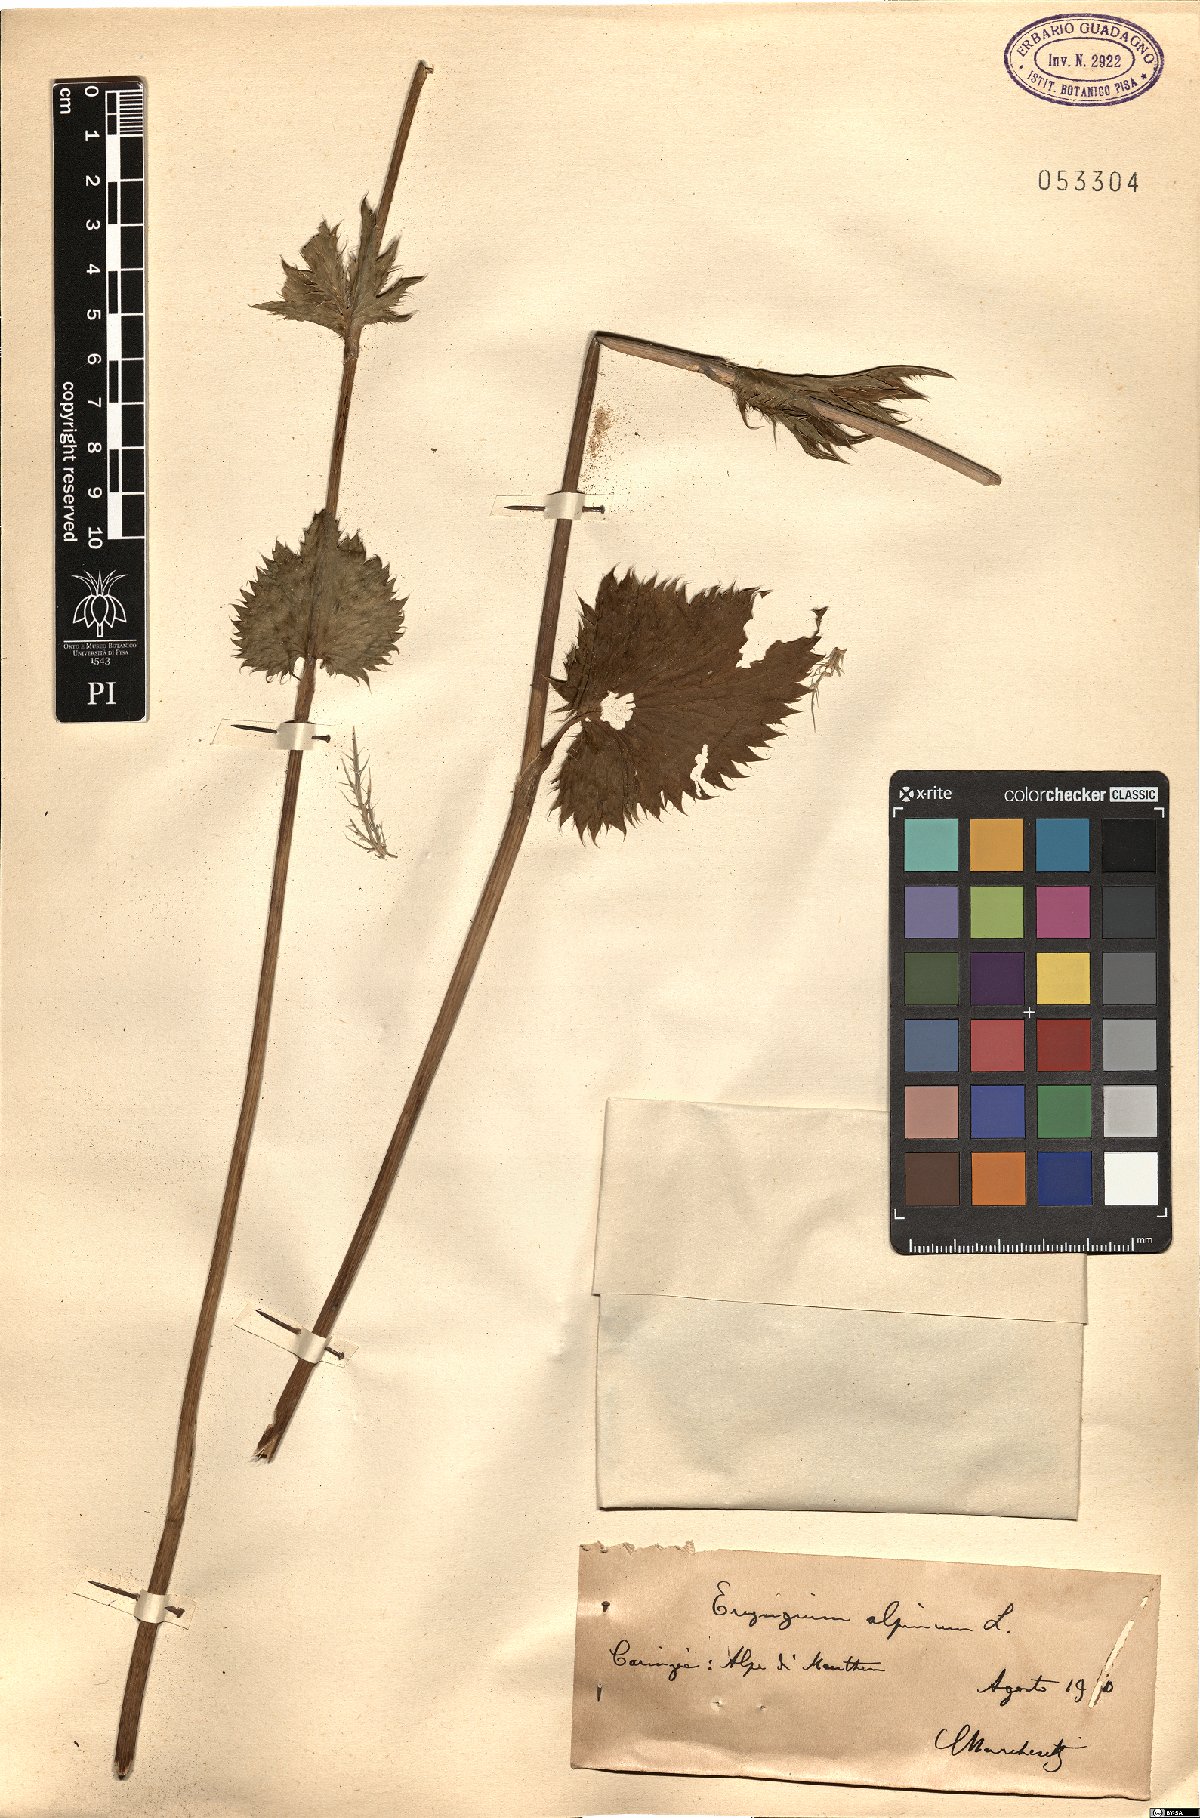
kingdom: Plantae
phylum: Tracheophyta
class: Magnoliopsida
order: Apiales
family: Apiaceae
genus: Eryngium
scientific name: Eryngium alpinum
